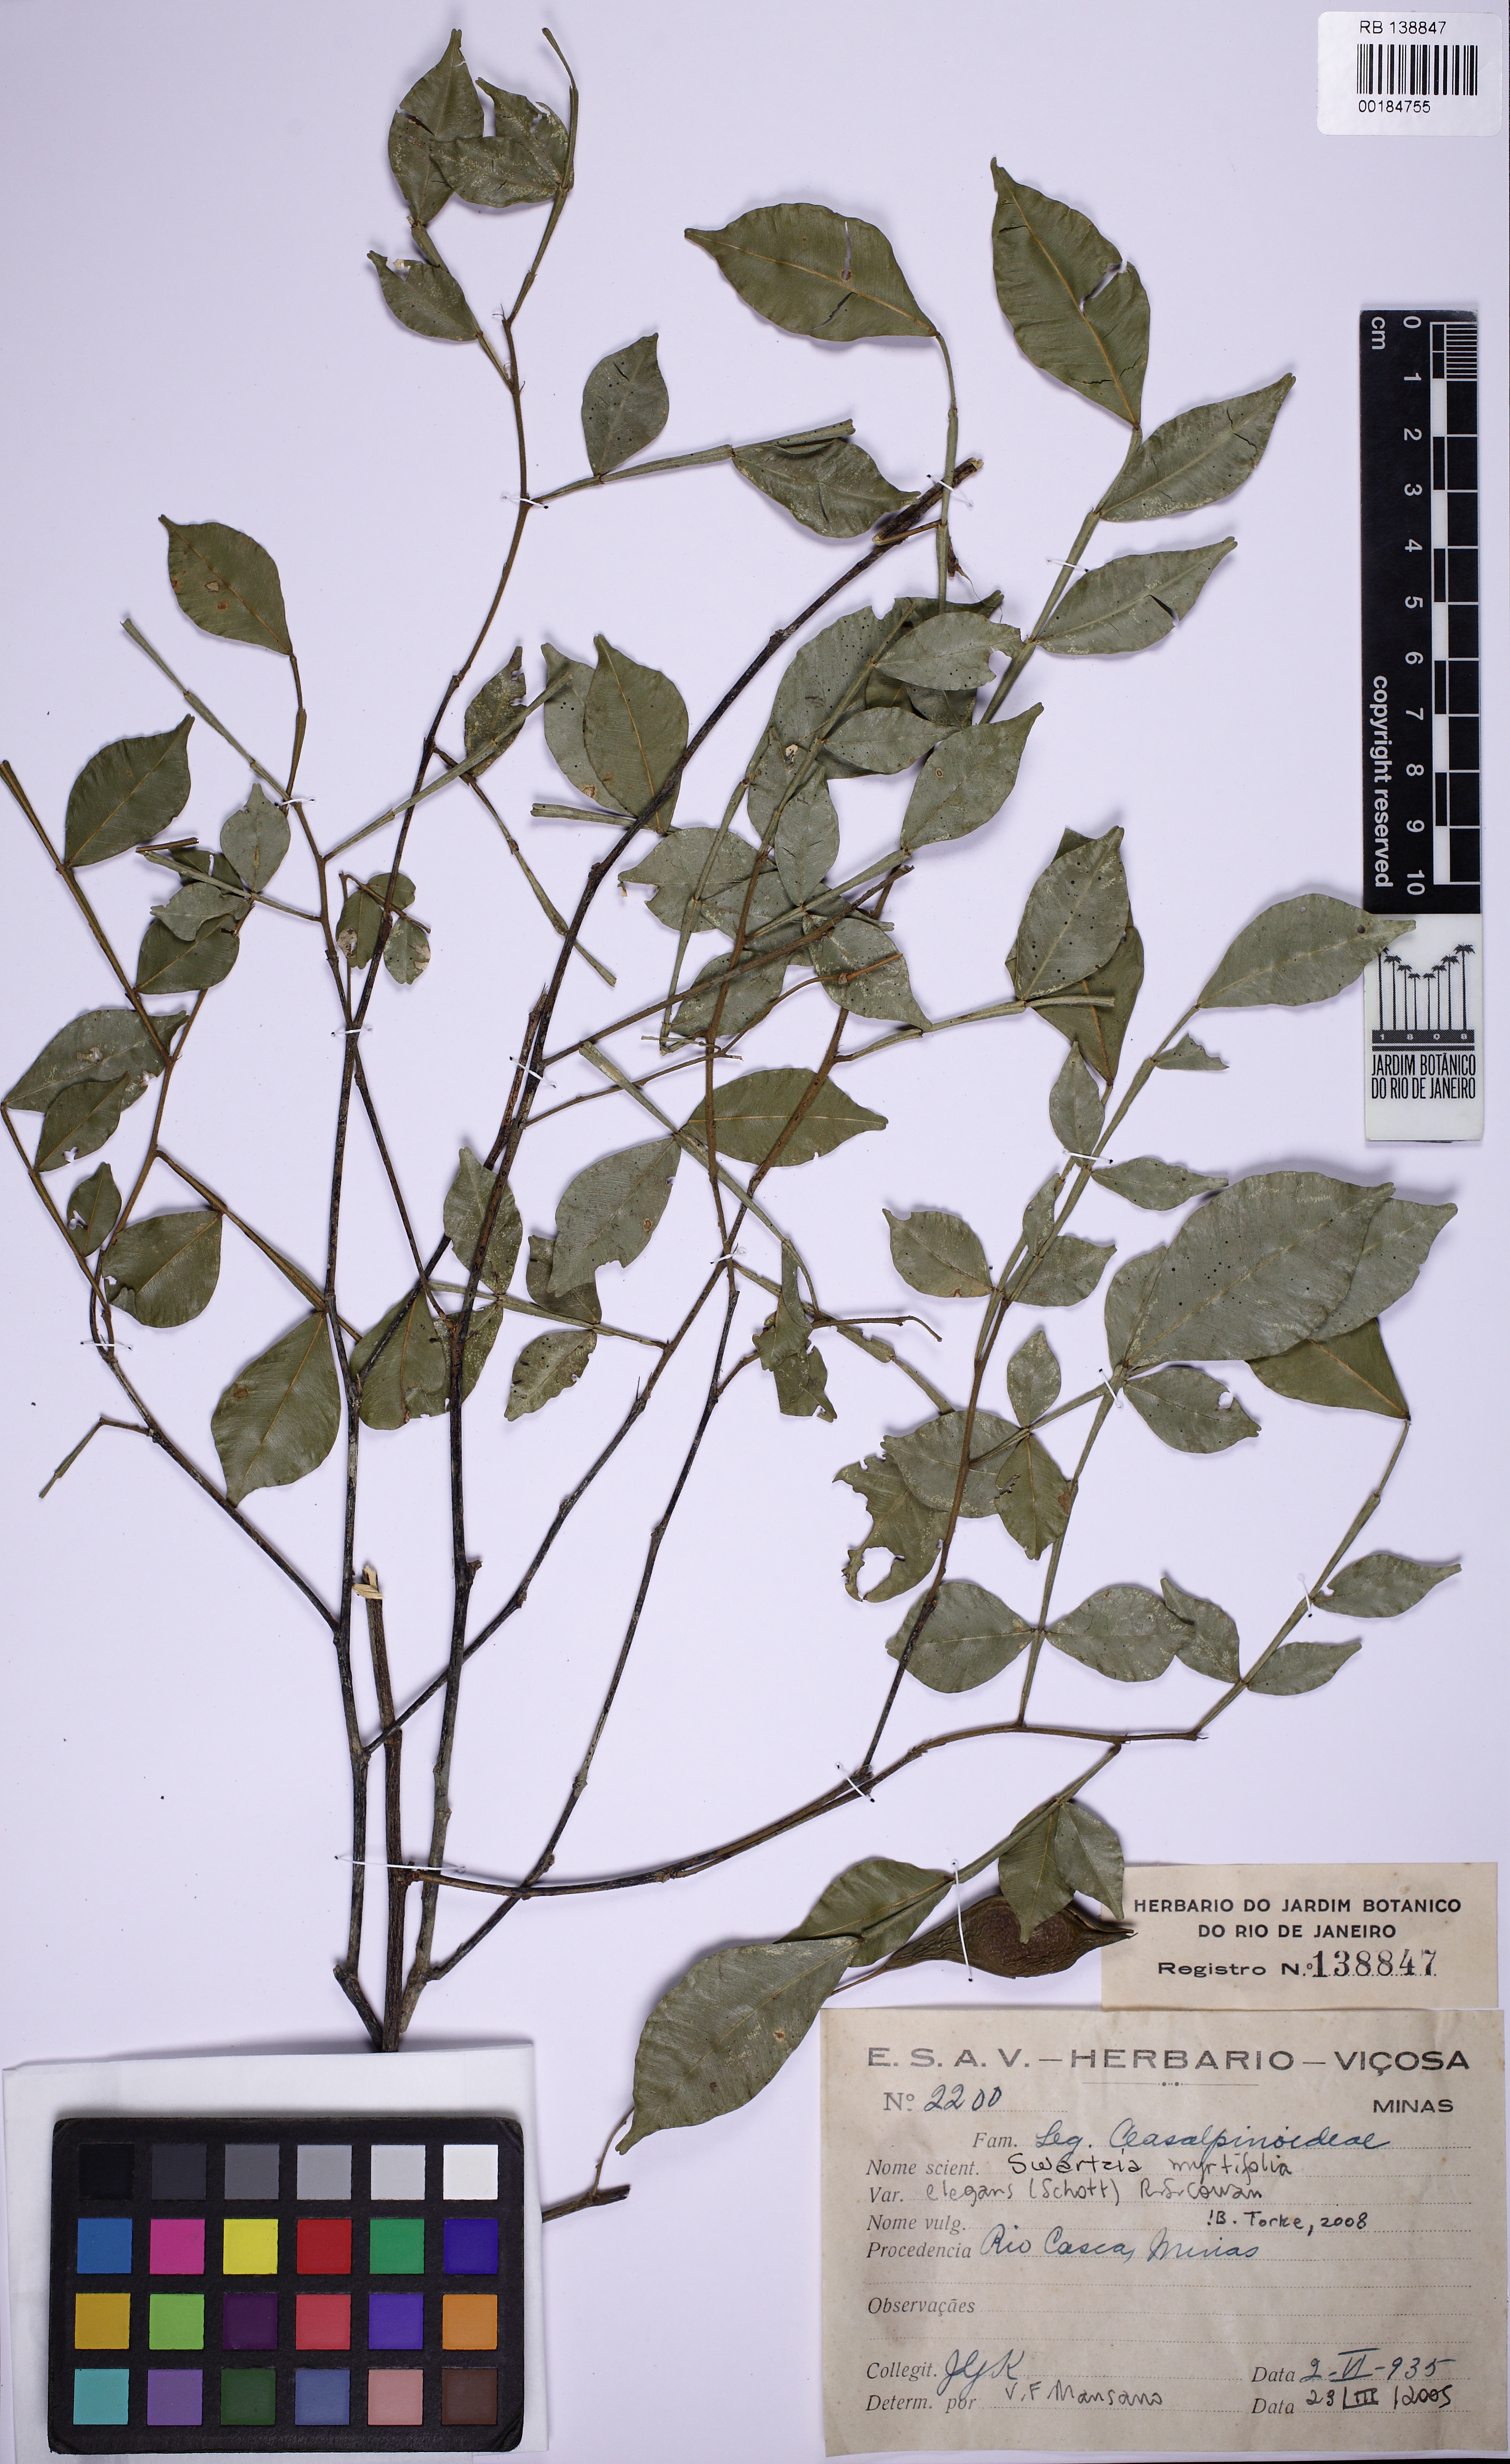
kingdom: Plantae
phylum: Tracheophyta
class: Magnoliopsida
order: Fabales
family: Fabaceae
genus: Swartzia
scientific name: Swartzia myrtifolia
